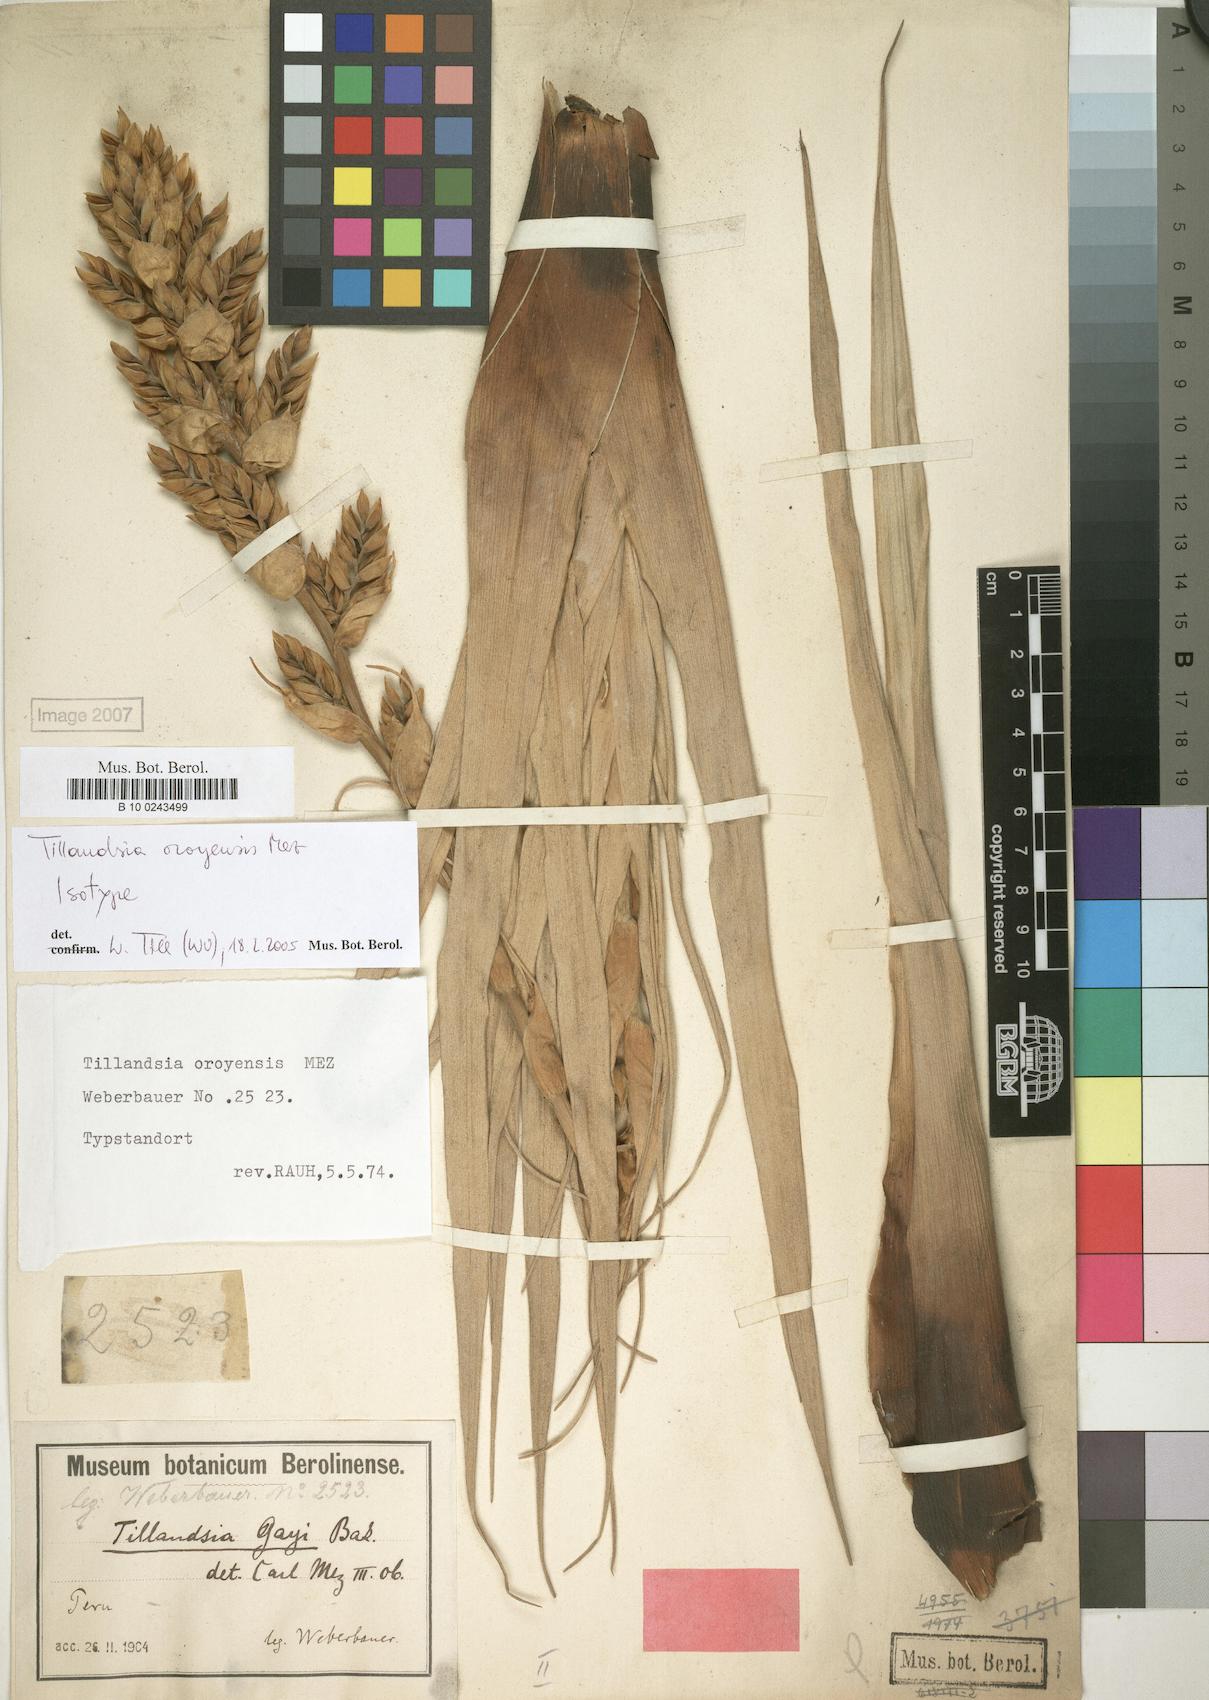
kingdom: Plantae
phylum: Tracheophyta
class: Liliopsida
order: Poales
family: Bromeliaceae
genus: Tillandsia
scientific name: Tillandsia oroyensis
